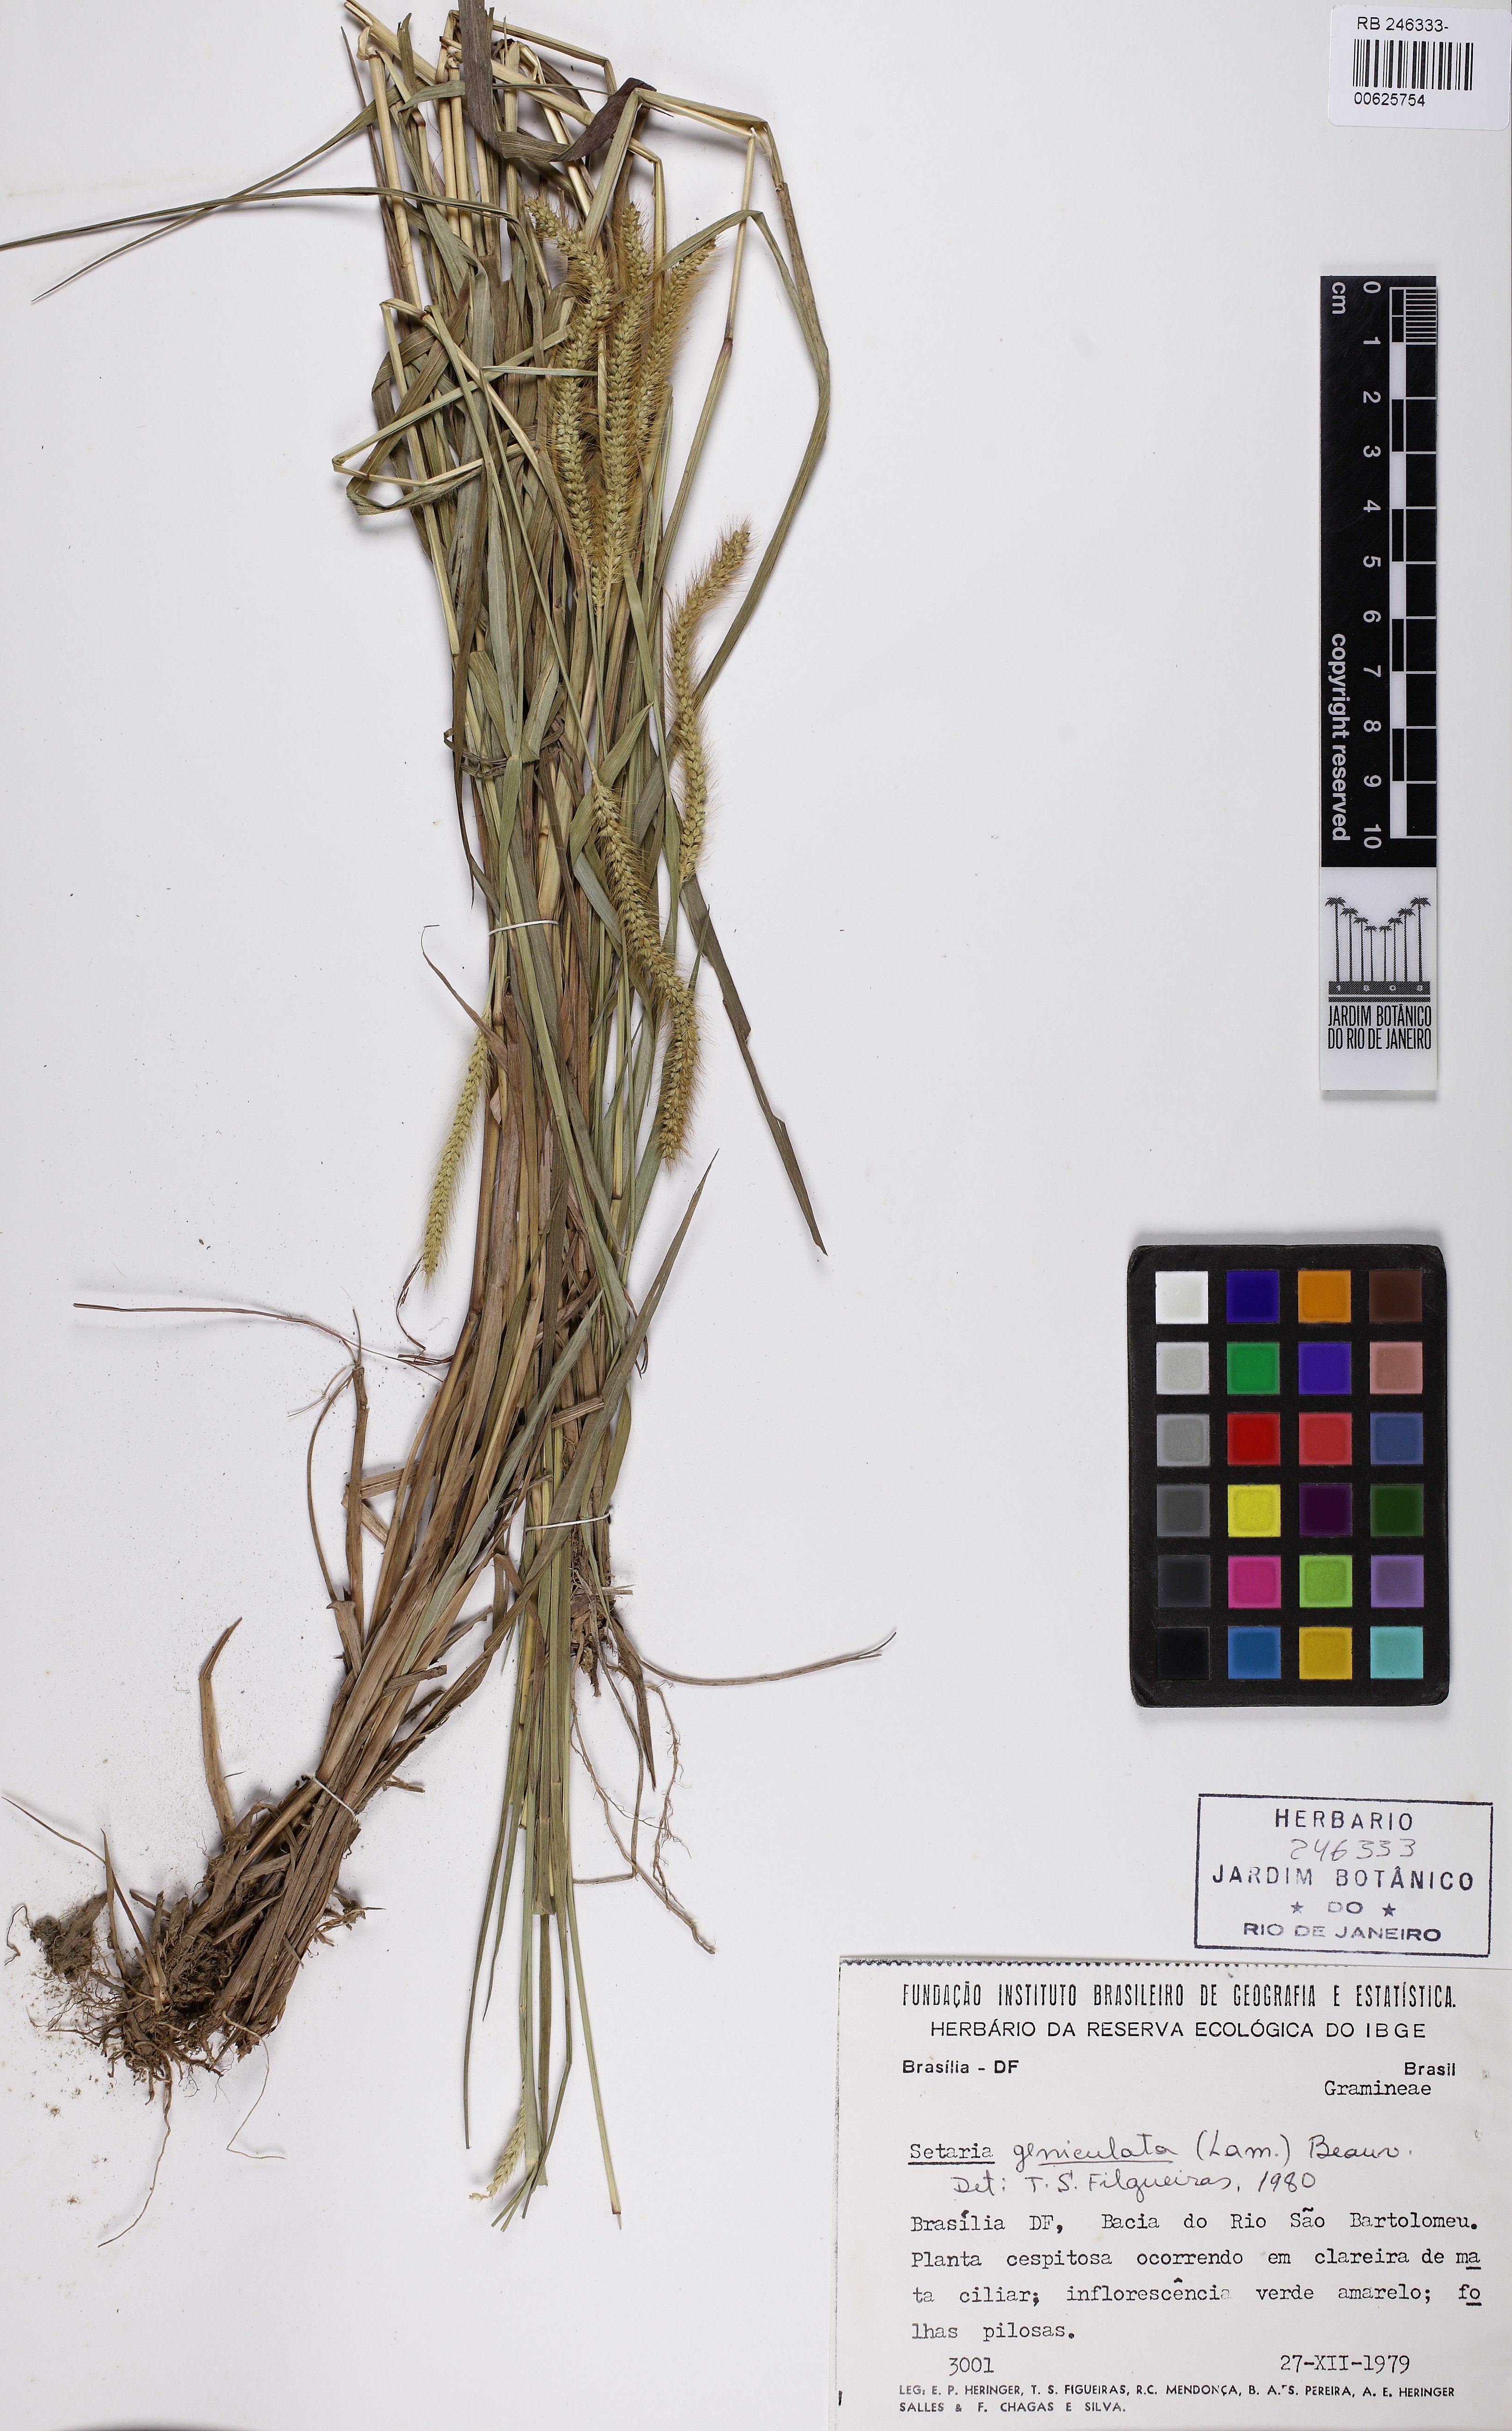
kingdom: Plantae
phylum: Tracheophyta
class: Liliopsida
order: Poales
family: Poaceae
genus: Setaria
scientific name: Setaria parviflora
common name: Knotroot bristle-grass
